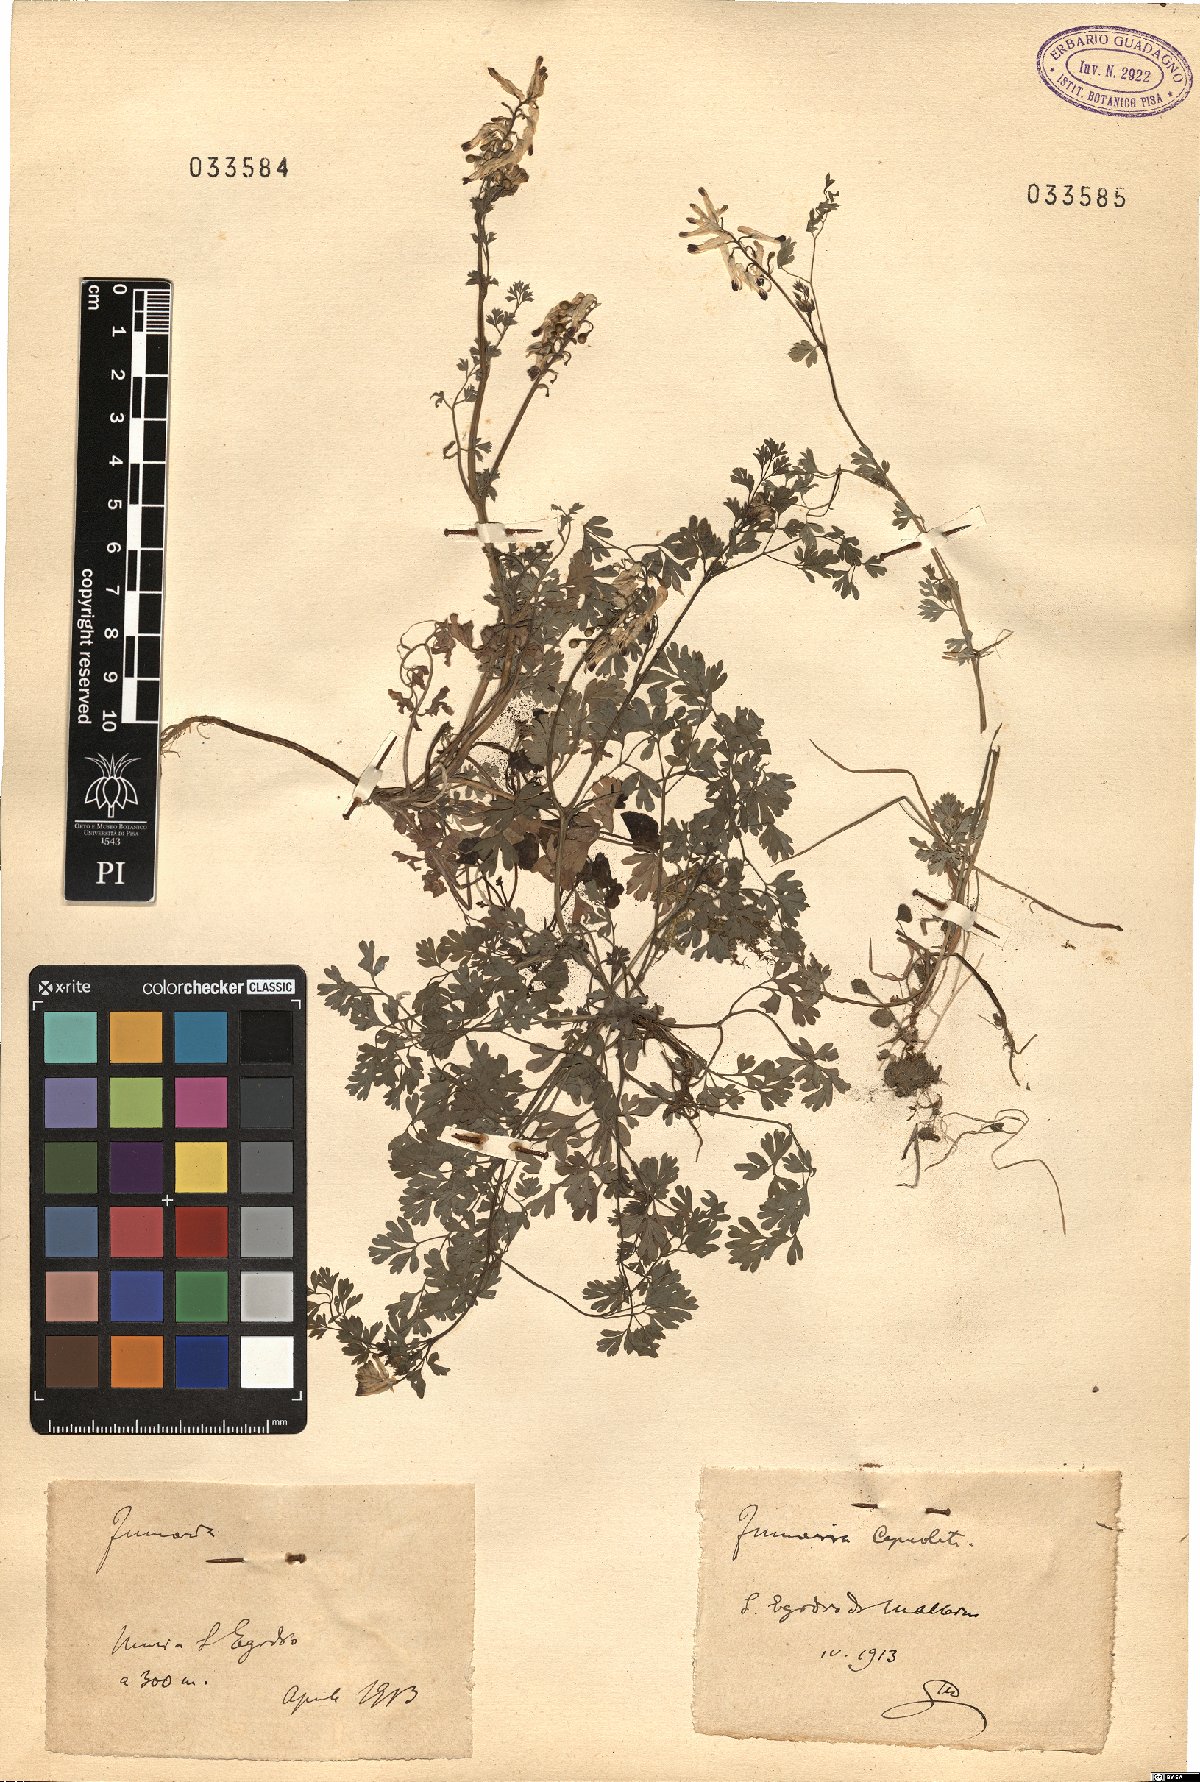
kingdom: Plantae
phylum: Tracheophyta
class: Magnoliopsida
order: Ranunculales
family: Papaveraceae
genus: Fumaria
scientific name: Fumaria capreolata
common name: White ramping-fumitory
